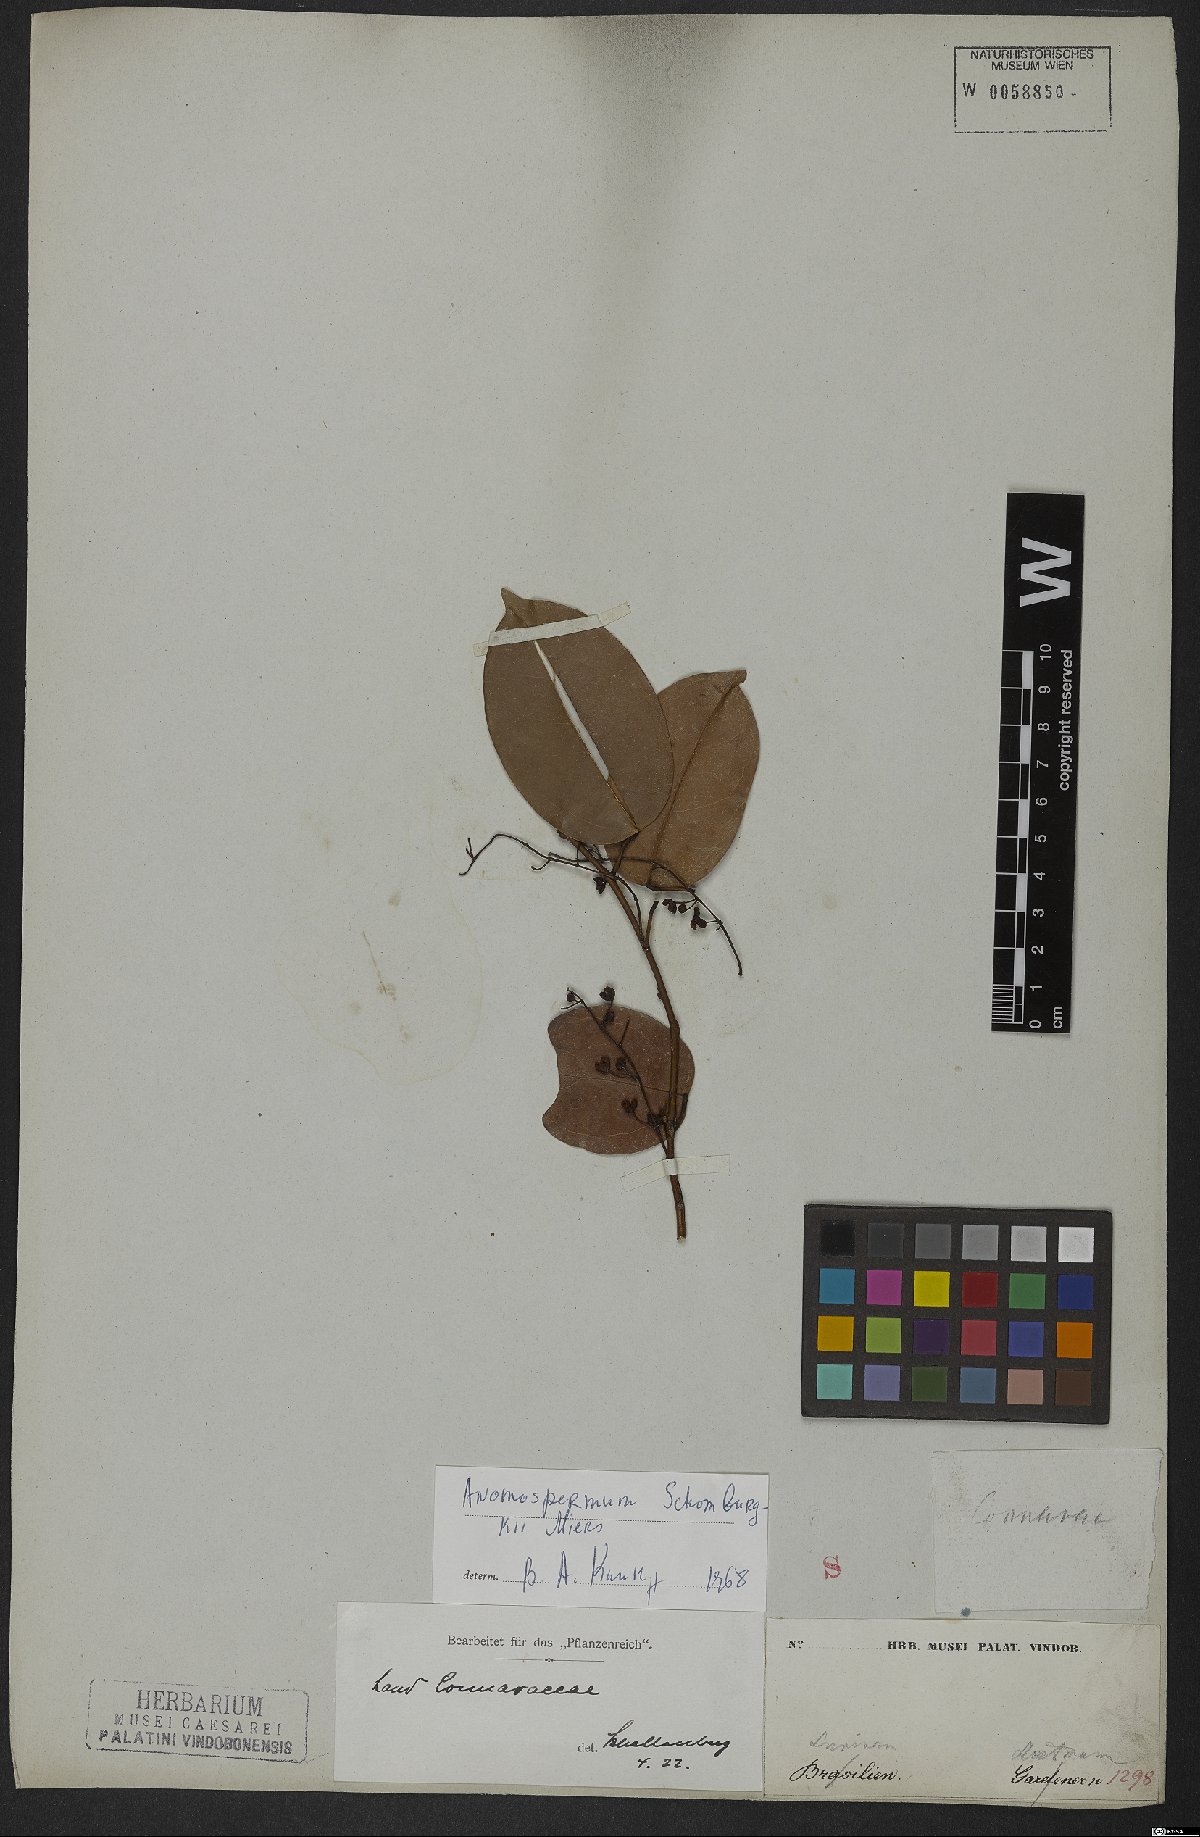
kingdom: Plantae
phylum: Tracheophyta
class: Magnoliopsida
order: Ranunculales
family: Menispermaceae
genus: Anomospermum
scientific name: Anomospermum
